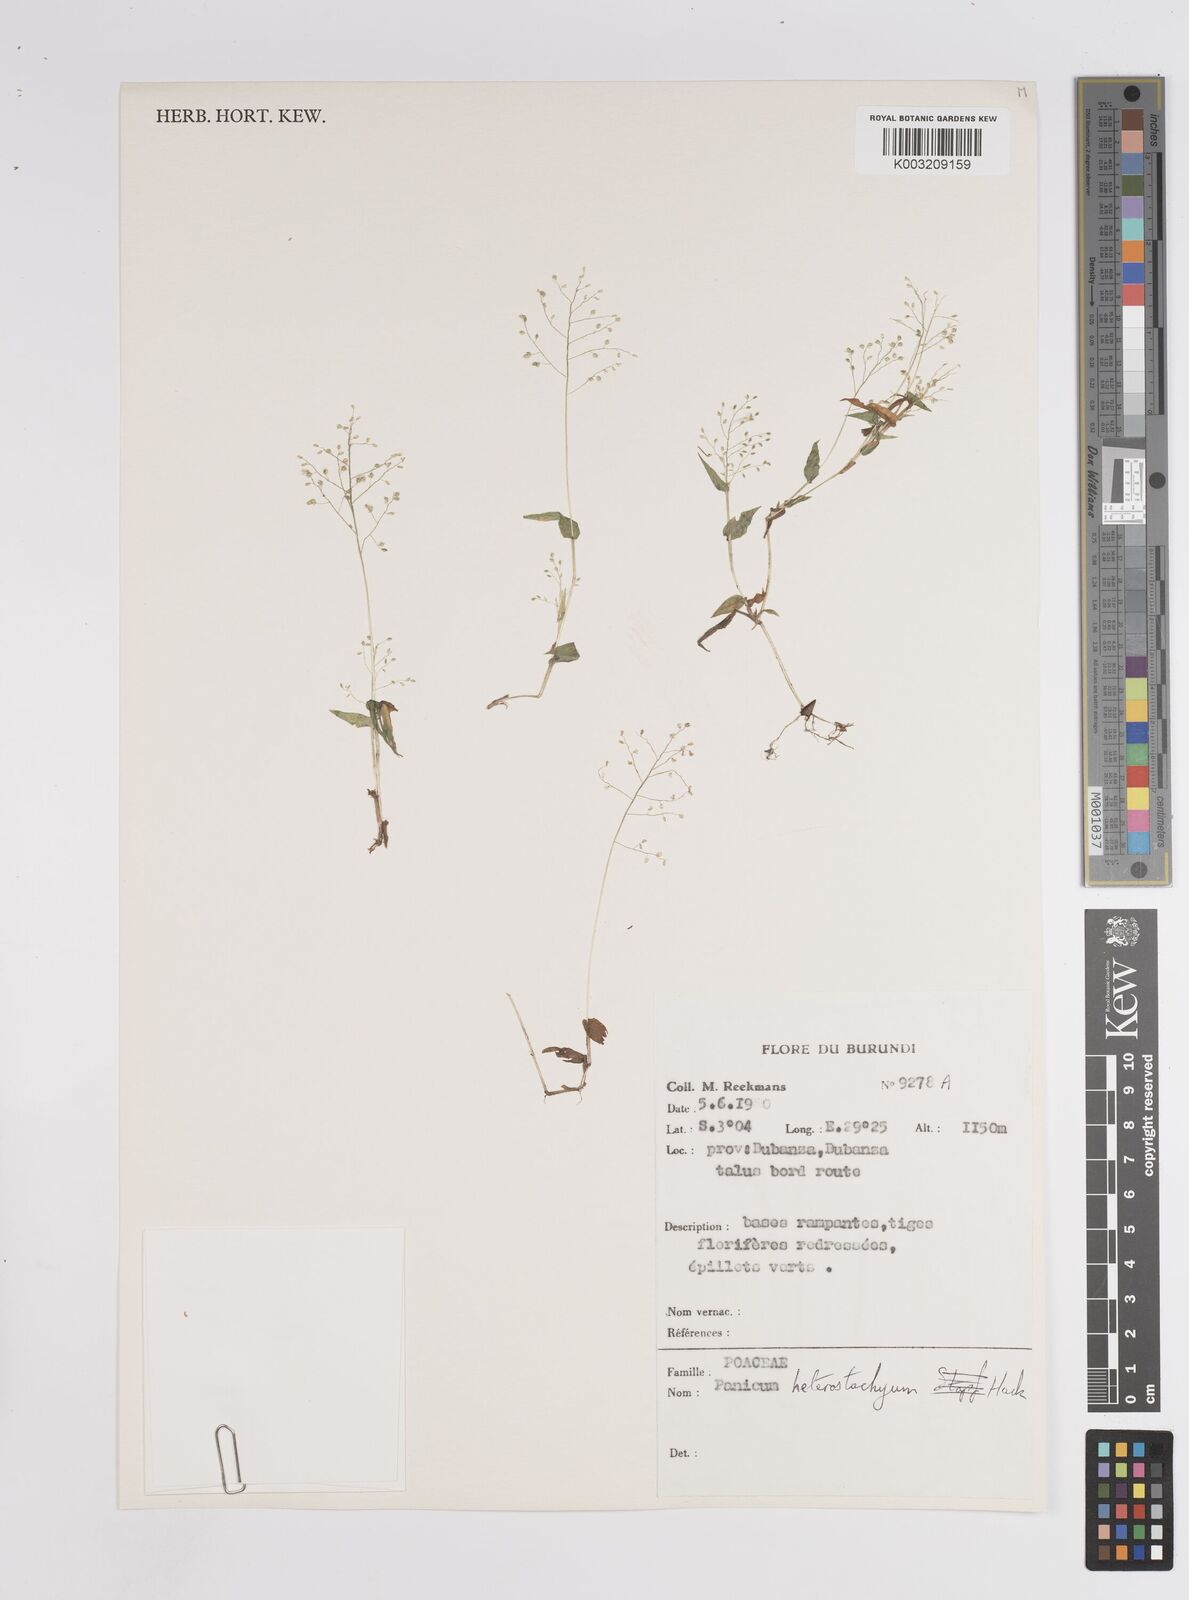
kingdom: Plantae
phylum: Tracheophyta
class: Liliopsida
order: Poales
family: Poaceae
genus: Pseudechinolaena
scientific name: Pseudechinolaena polystachya
